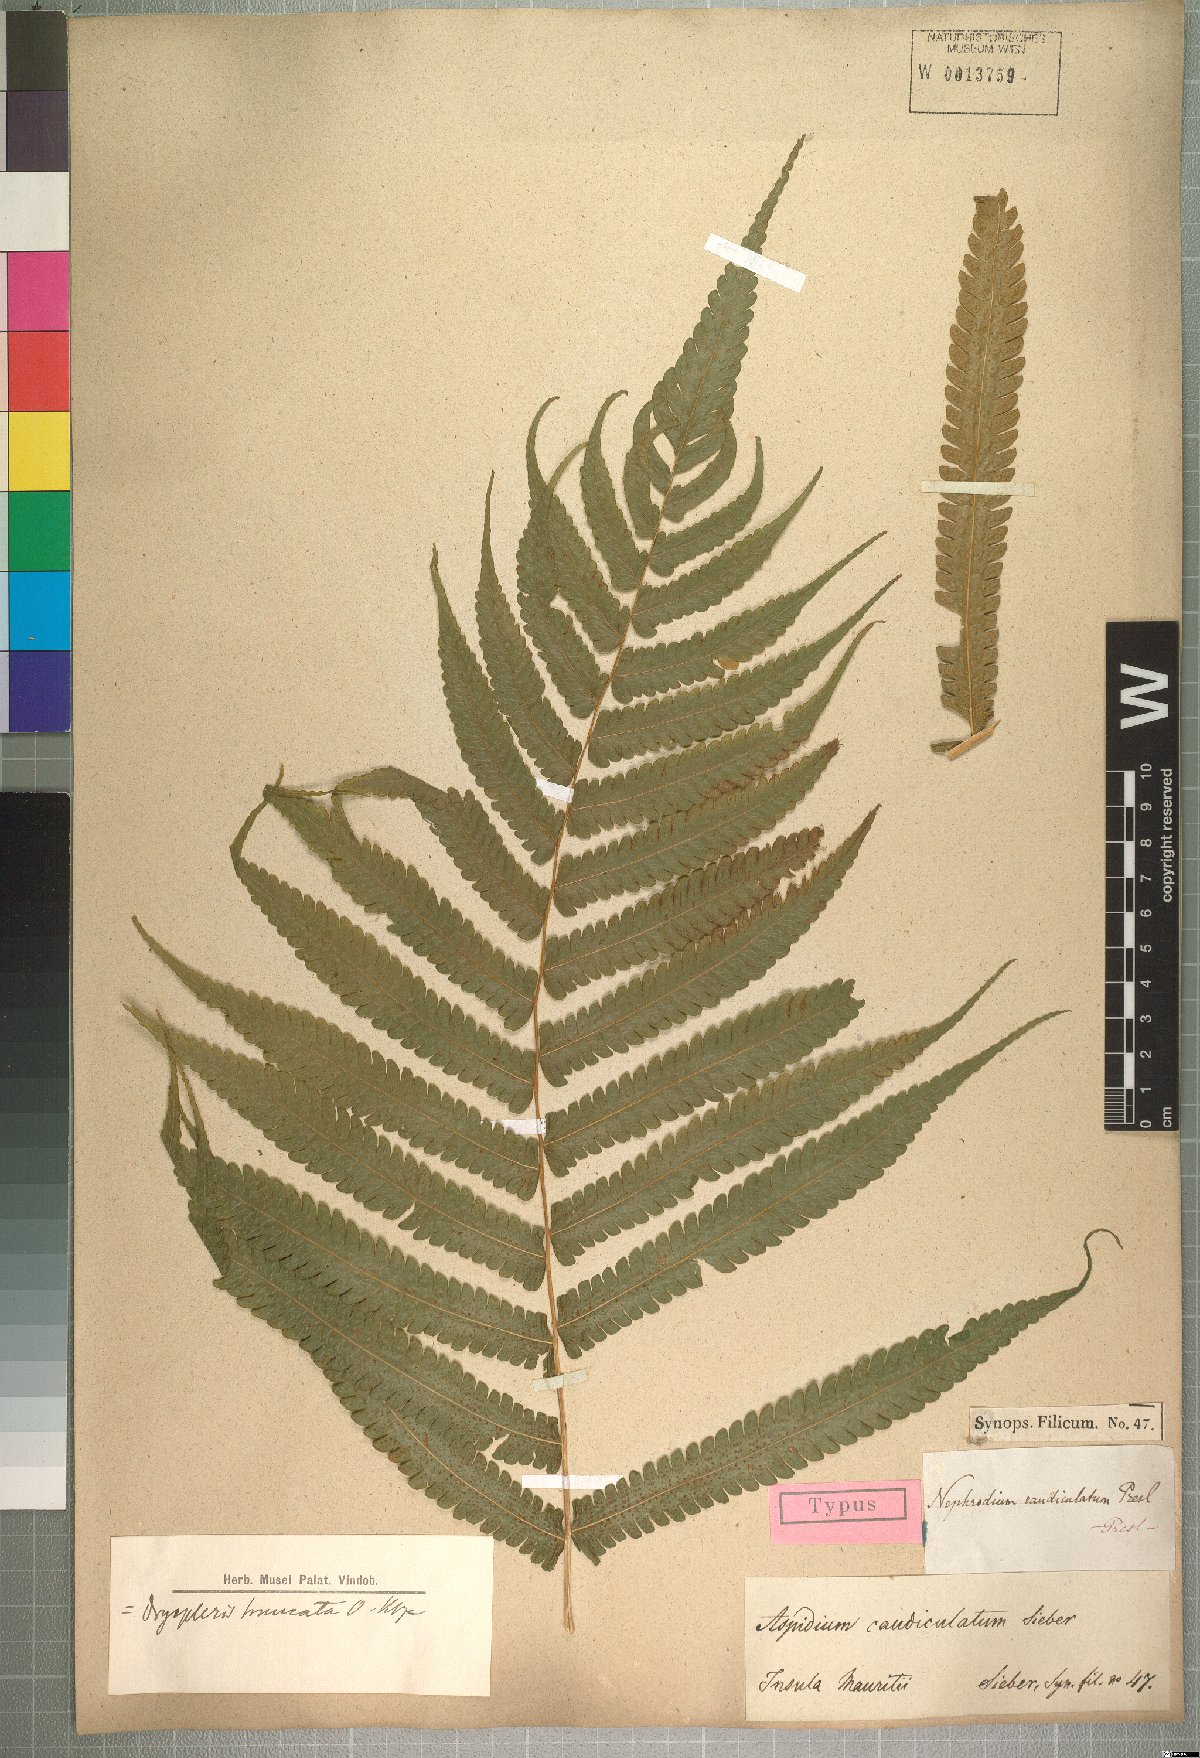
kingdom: Plantae
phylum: Tracheophyta
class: Polypodiopsida
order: Polypodiales
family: Thelypteridaceae
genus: Pneumatopteris
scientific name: Pneumatopteris prismatica
